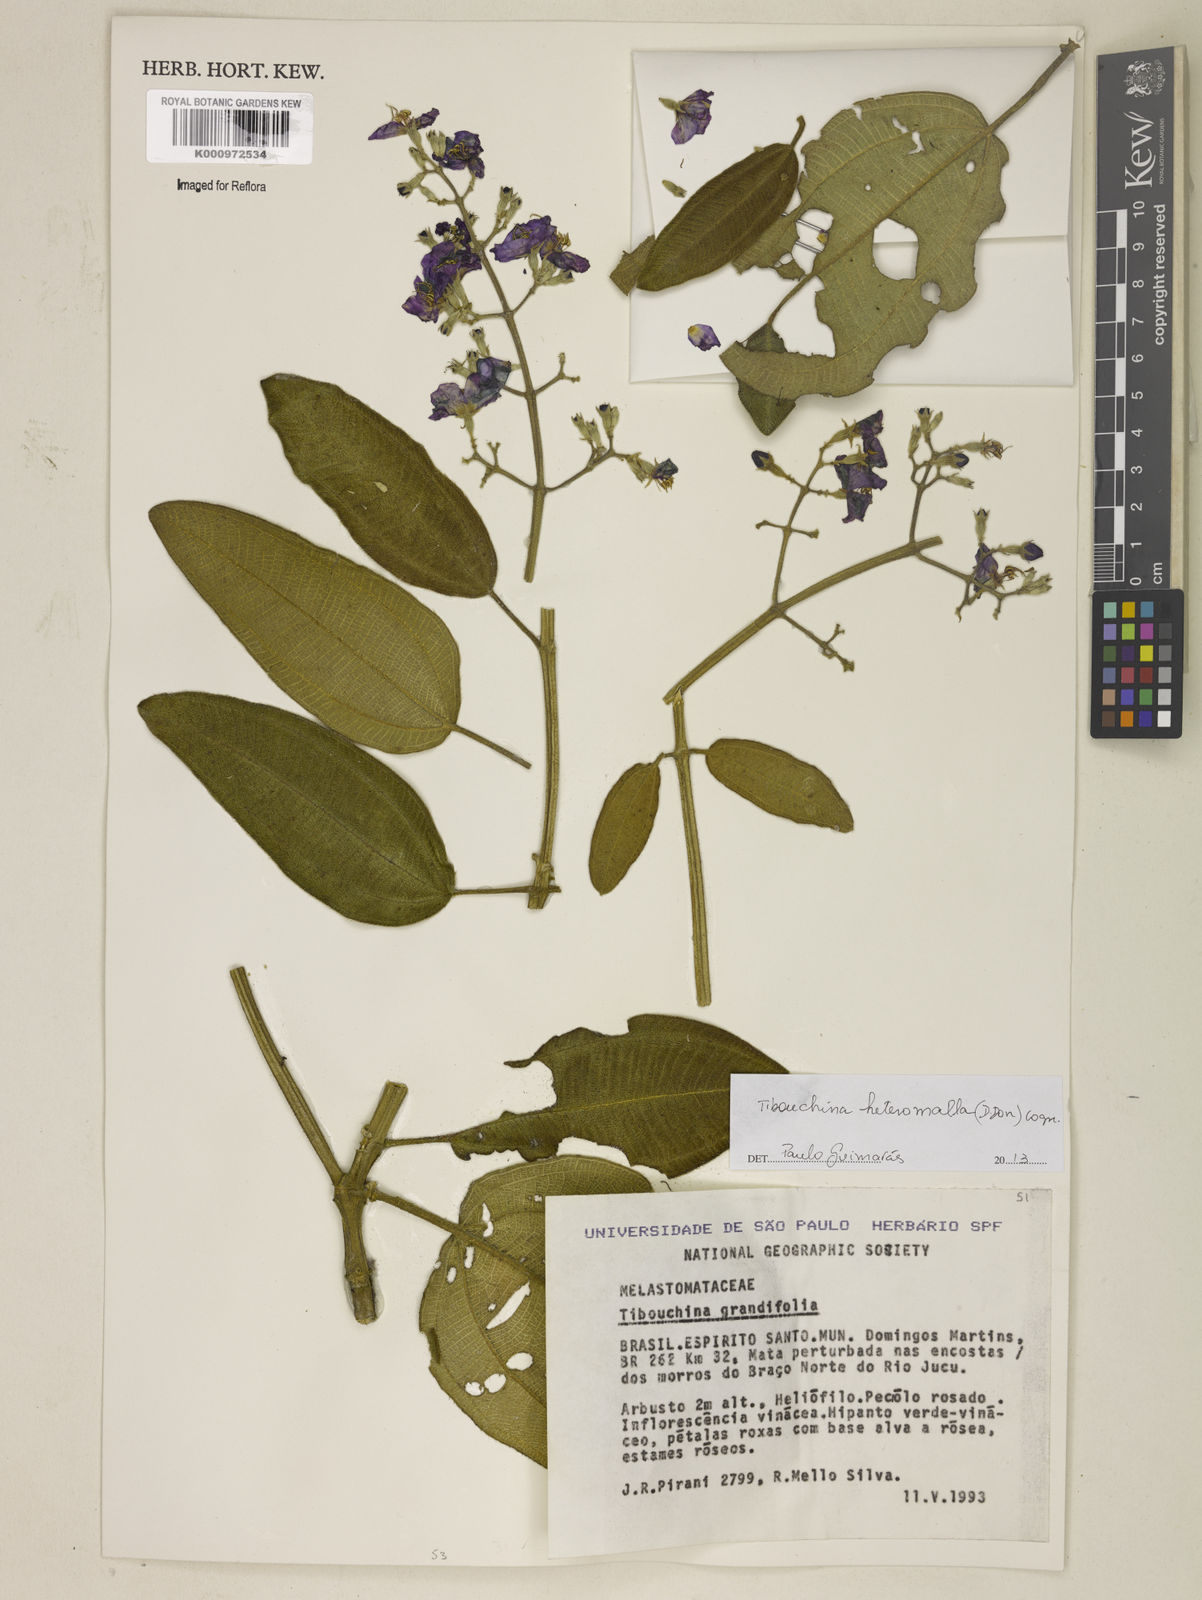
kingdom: Plantae
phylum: Tracheophyta
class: Magnoliopsida
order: Myrtales
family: Melastomataceae
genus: Pleroma
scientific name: Pleroma heteromallum
